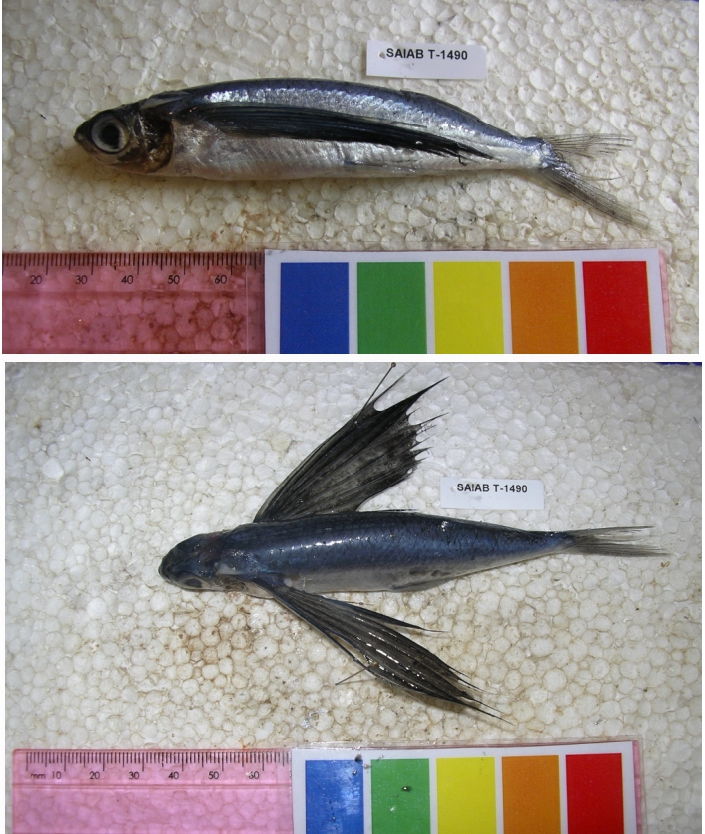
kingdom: Animalia
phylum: Chordata
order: Beloniformes
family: Exocoetidae
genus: Cheilopogon
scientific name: Cheilopogon
